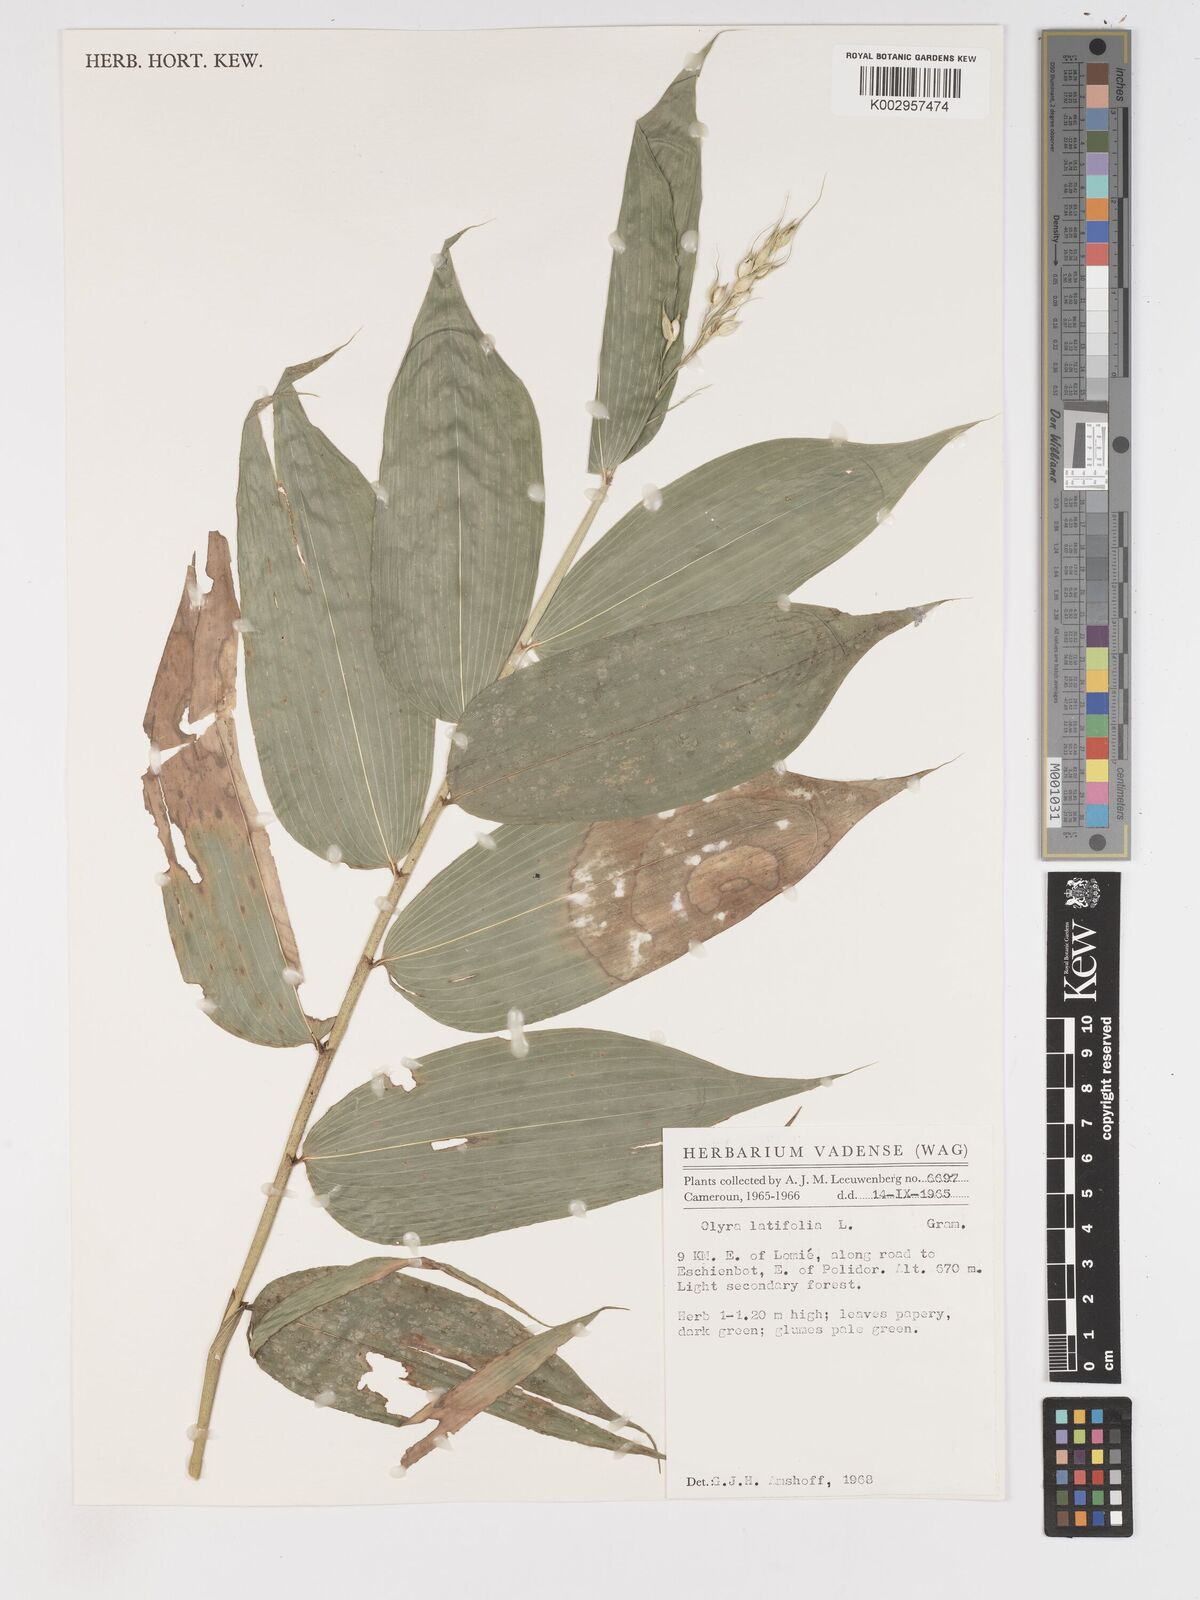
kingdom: Plantae
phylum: Tracheophyta
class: Liliopsida
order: Poales
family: Poaceae
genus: Olyra
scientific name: Olyra latifolia
